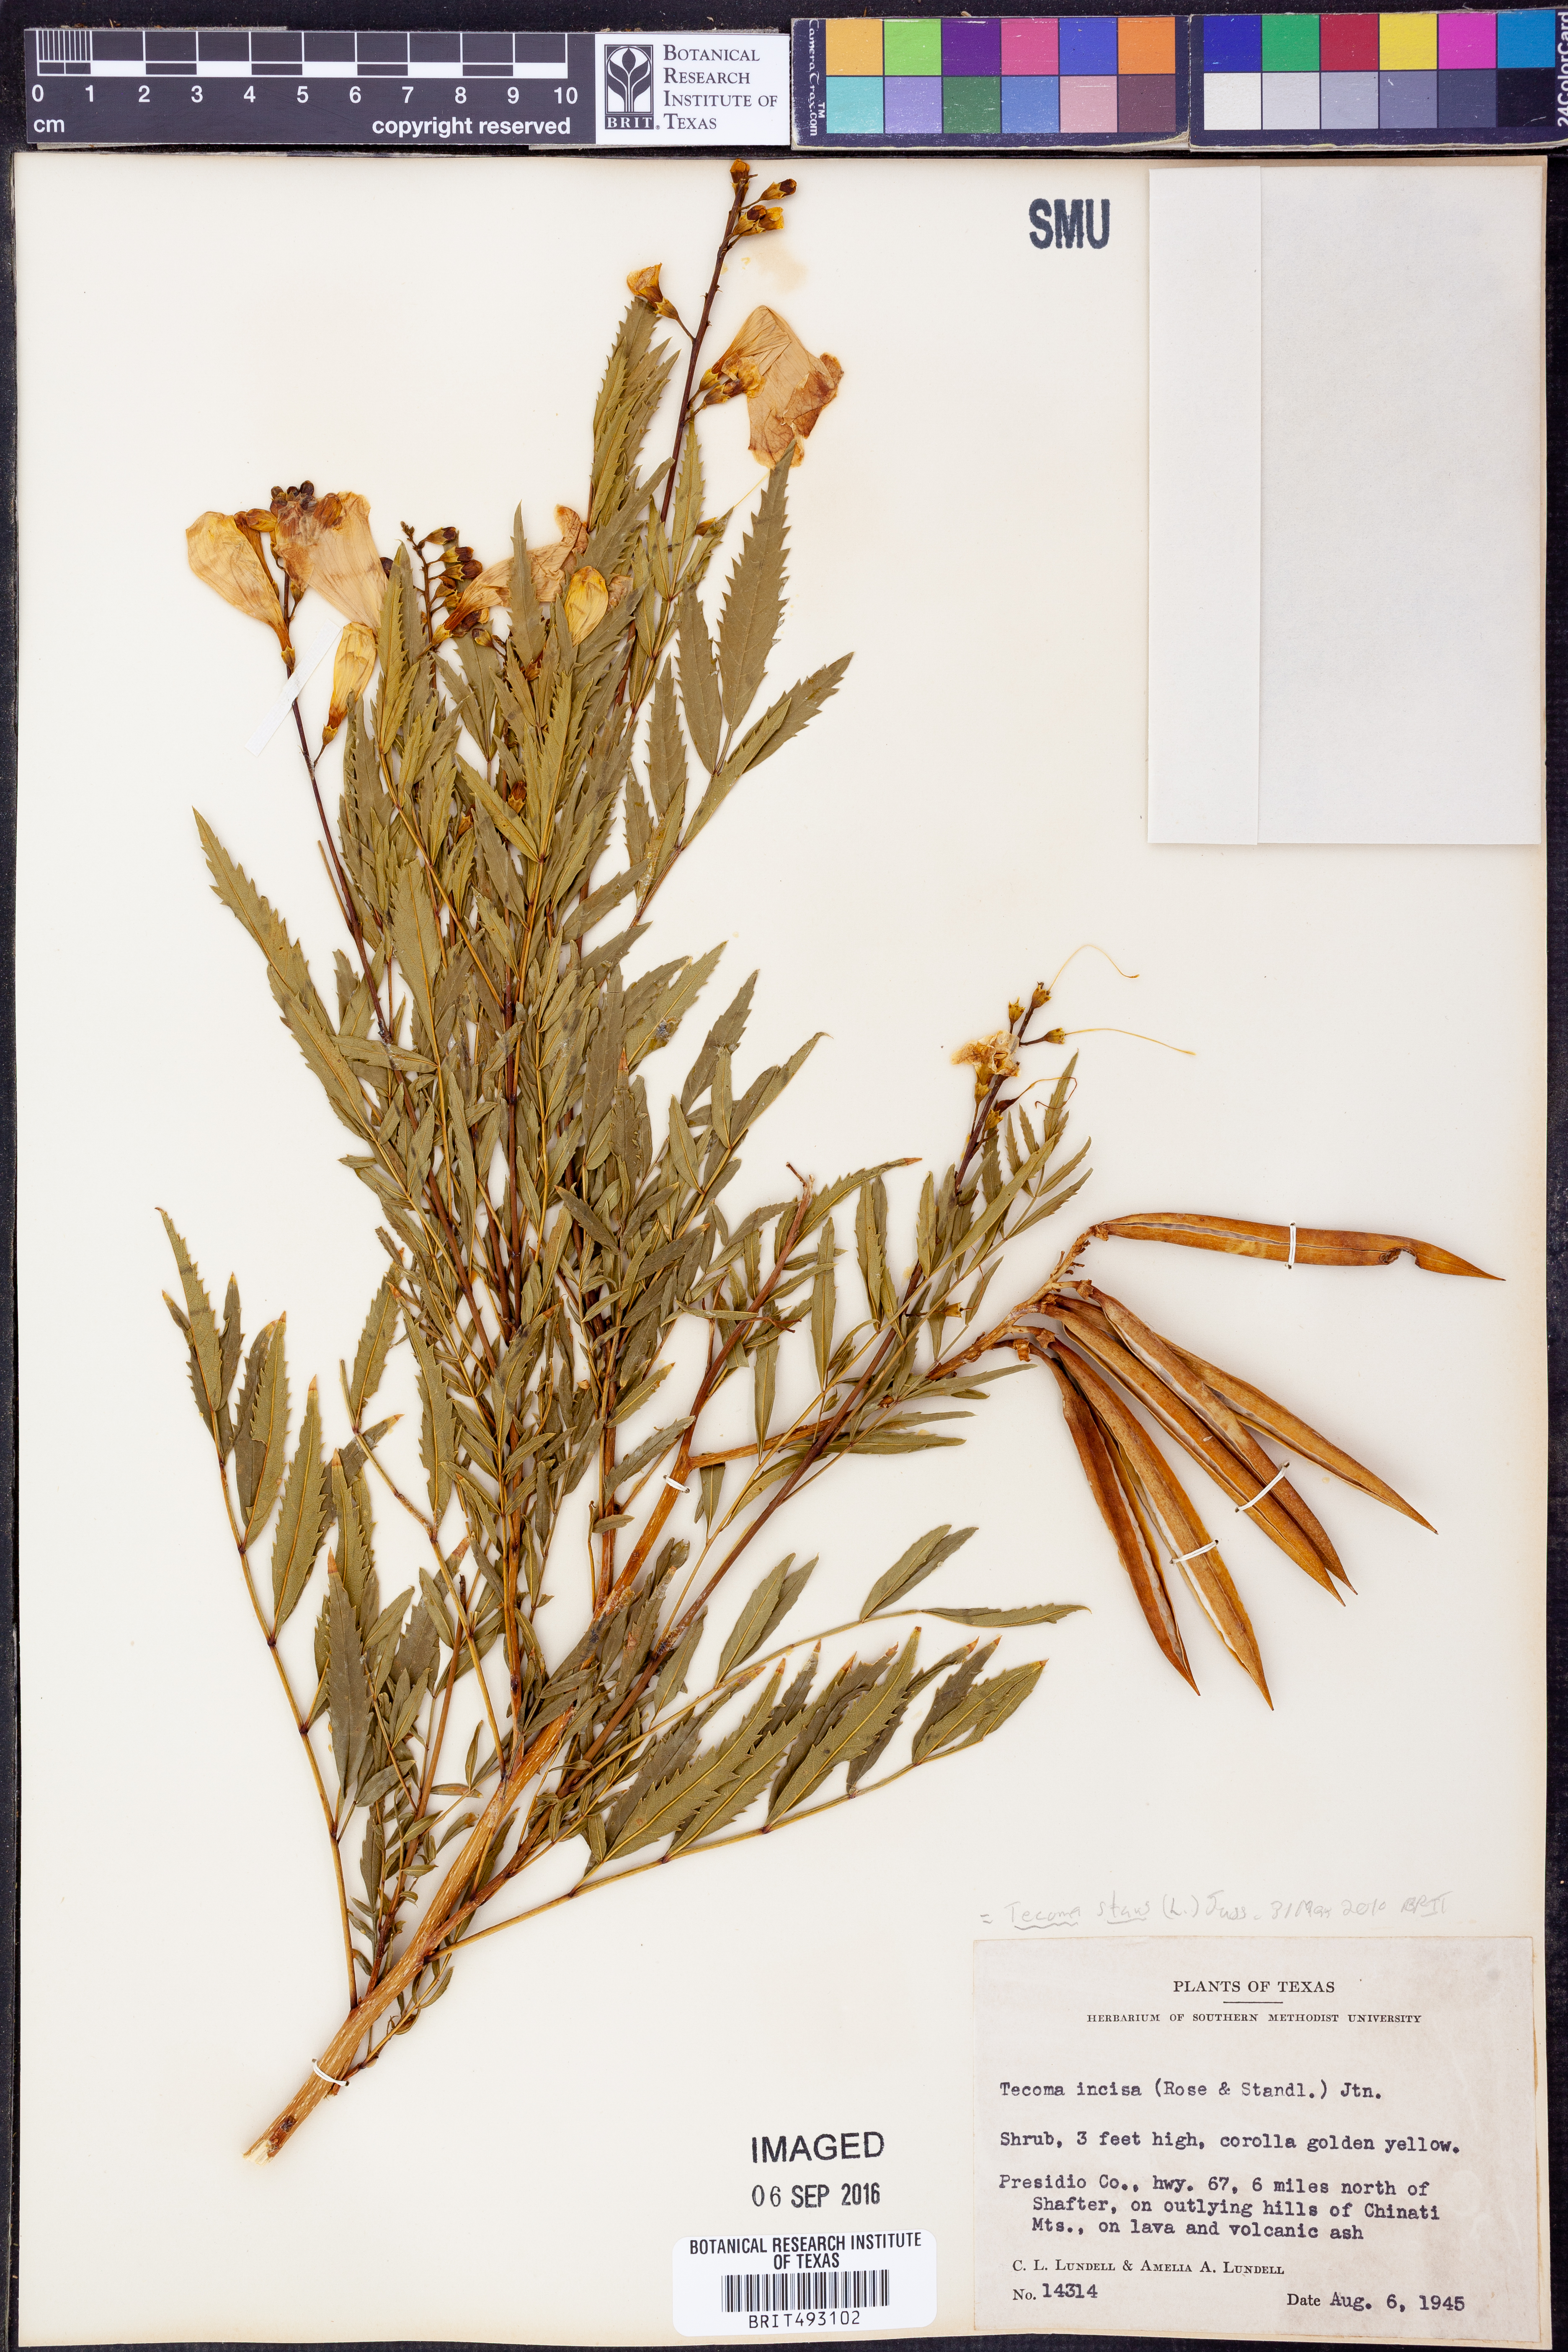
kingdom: Plantae
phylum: Tracheophyta
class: Magnoliopsida
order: Lamiales
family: Bignoniaceae
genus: Tecoma
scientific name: Tecoma stans
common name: Yellow trumpetbush
